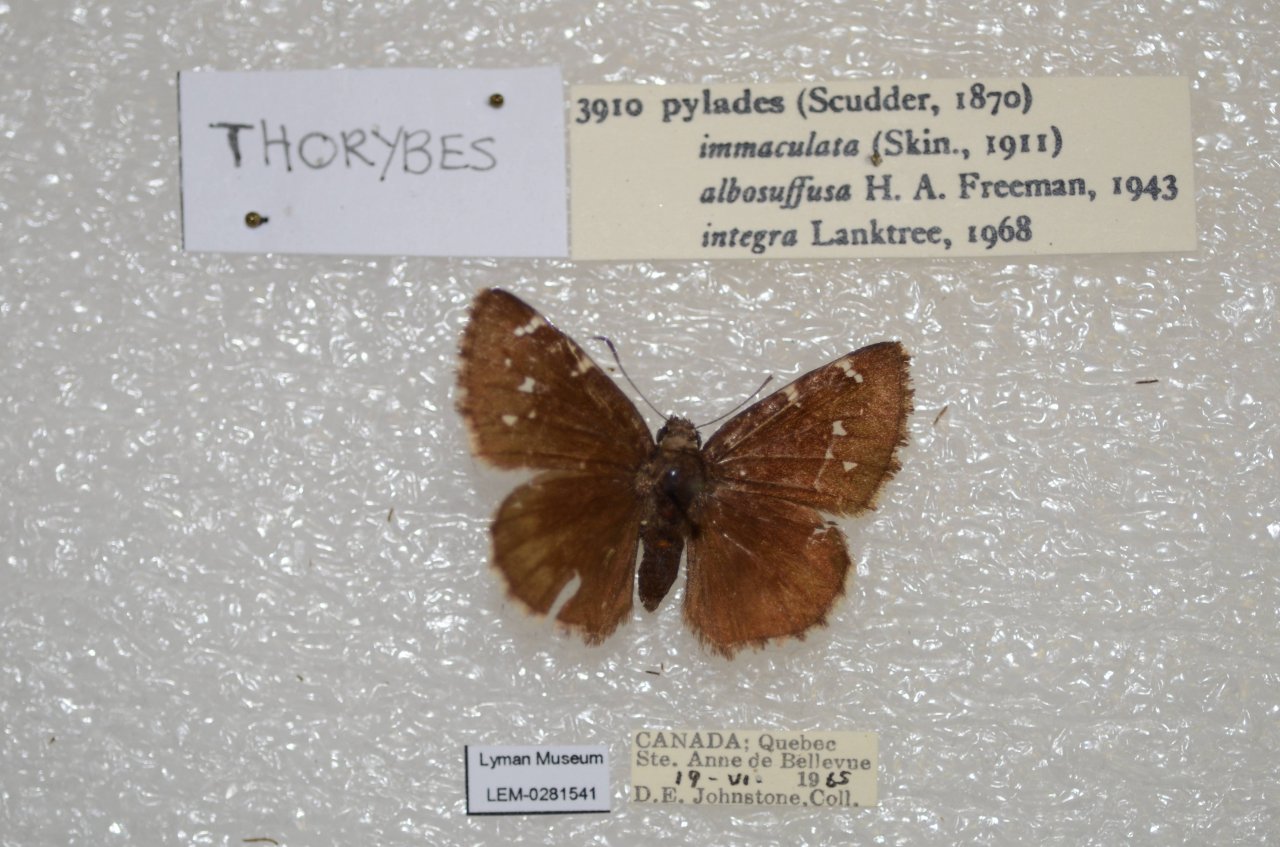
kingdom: Animalia
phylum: Arthropoda
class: Insecta
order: Lepidoptera
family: Hesperiidae
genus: Autochton
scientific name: Autochton
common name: Northern Cloudywing
